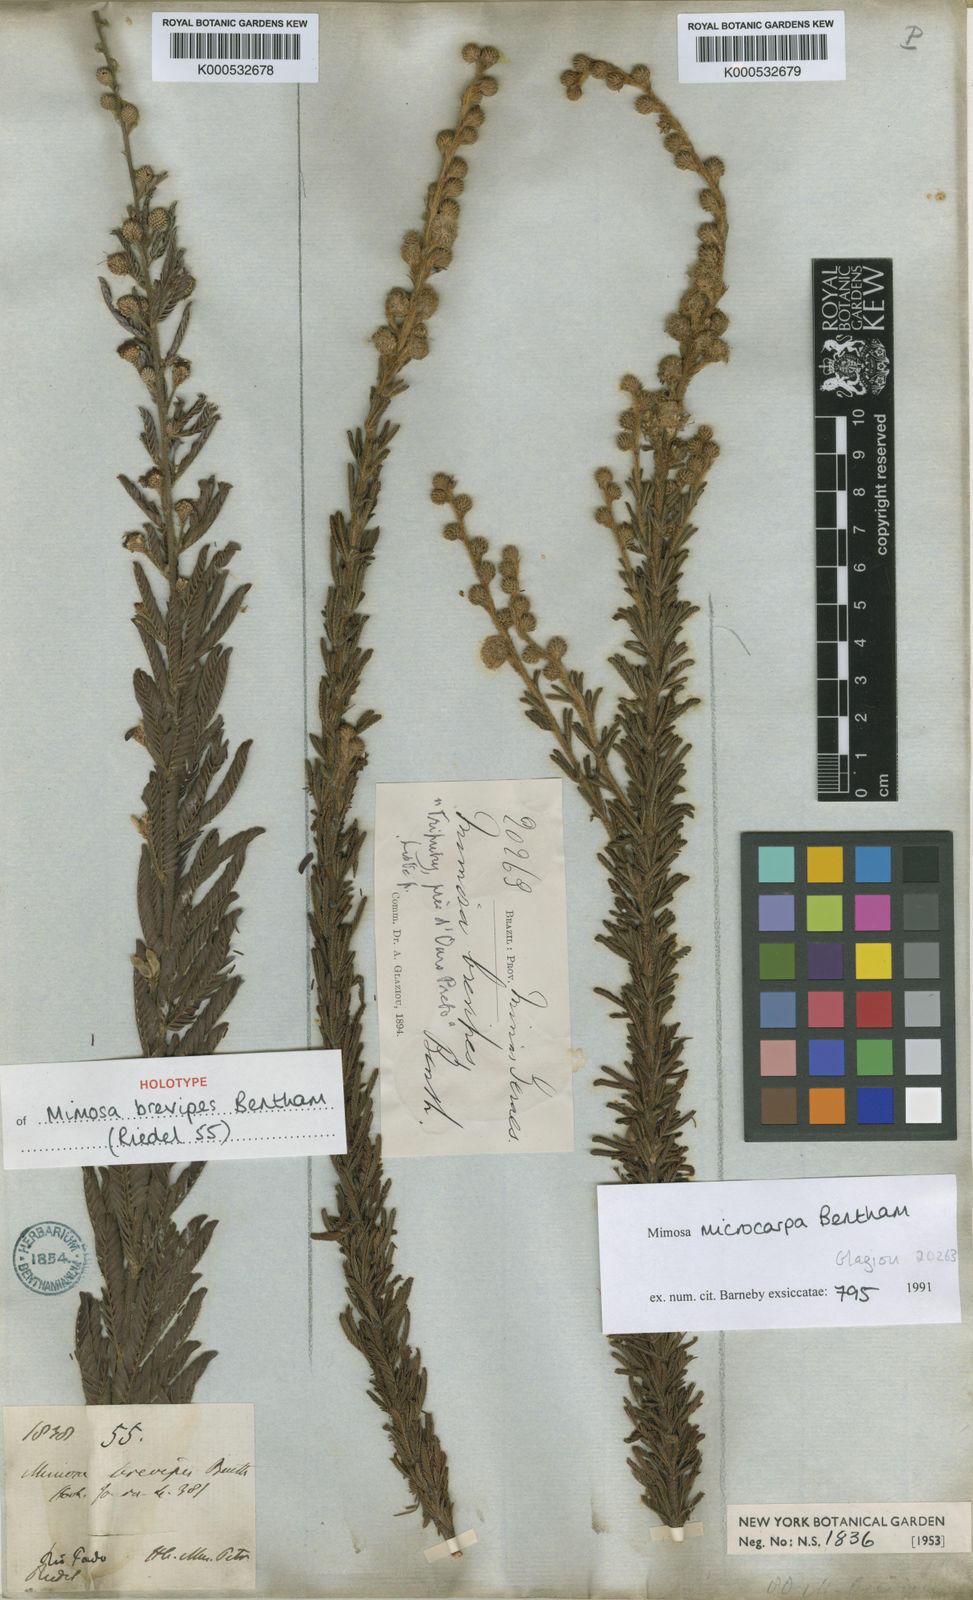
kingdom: Plantae
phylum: Tracheophyta
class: Magnoliopsida
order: Fabales
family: Fabaceae
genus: Mimosa
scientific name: Mimosa brevipes
